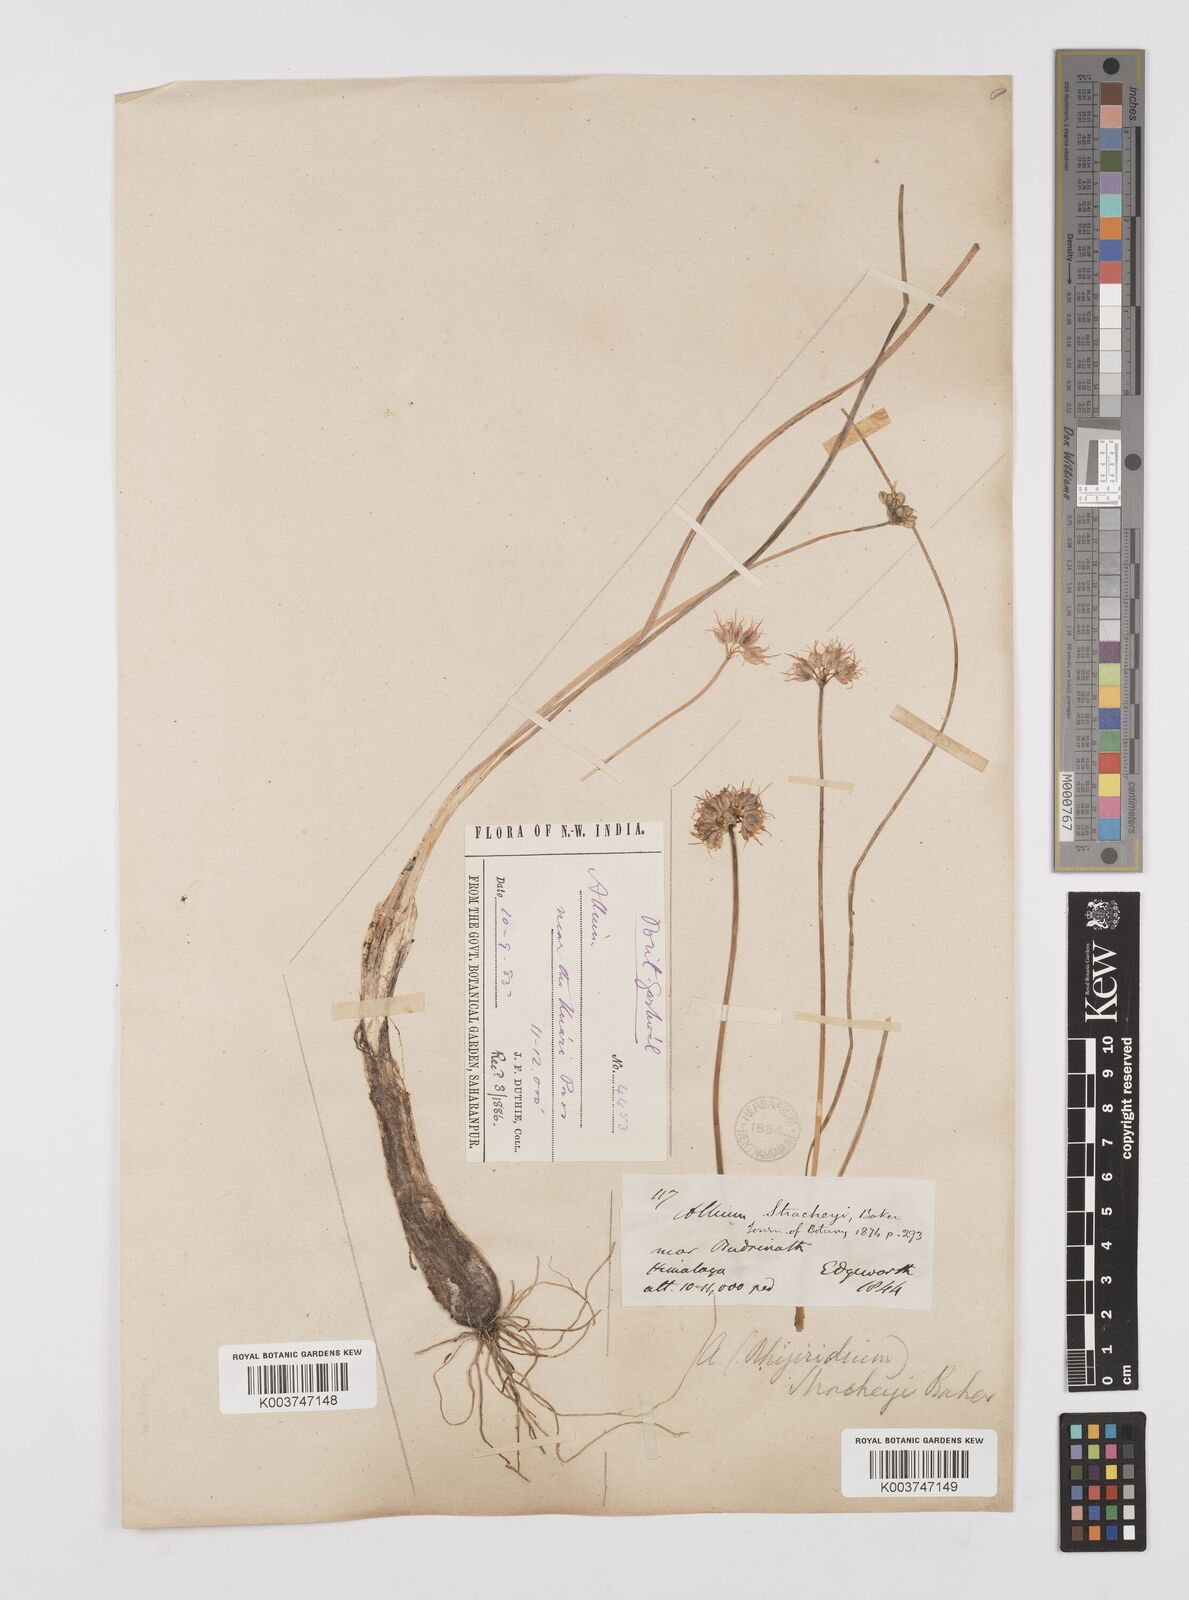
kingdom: Plantae
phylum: Tracheophyta
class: Liliopsida
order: Asparagales
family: Amaryllidaceae
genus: Allium
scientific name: Allium stracheyi
